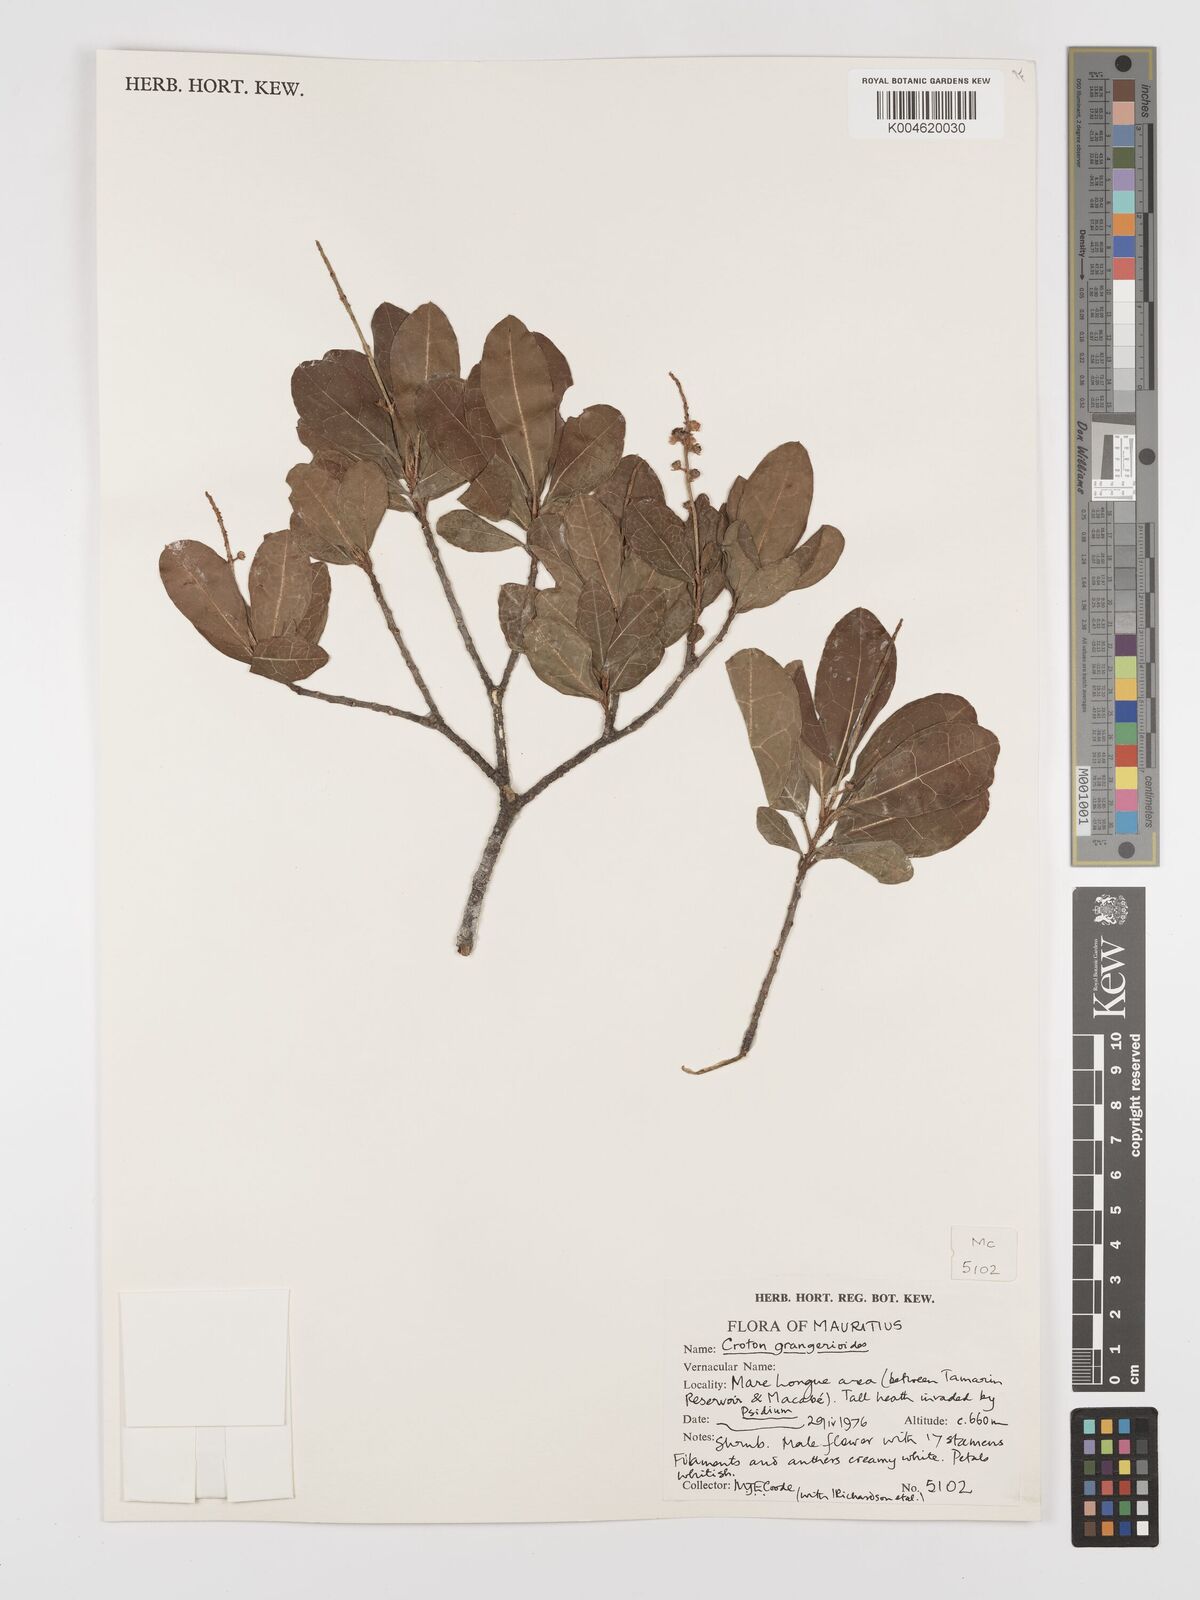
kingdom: Plantae
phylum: Tracheophyta
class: Magnoliopsida
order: Malpighiales
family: Euphorbiaceae
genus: Croton
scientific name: Croton grangerioides
